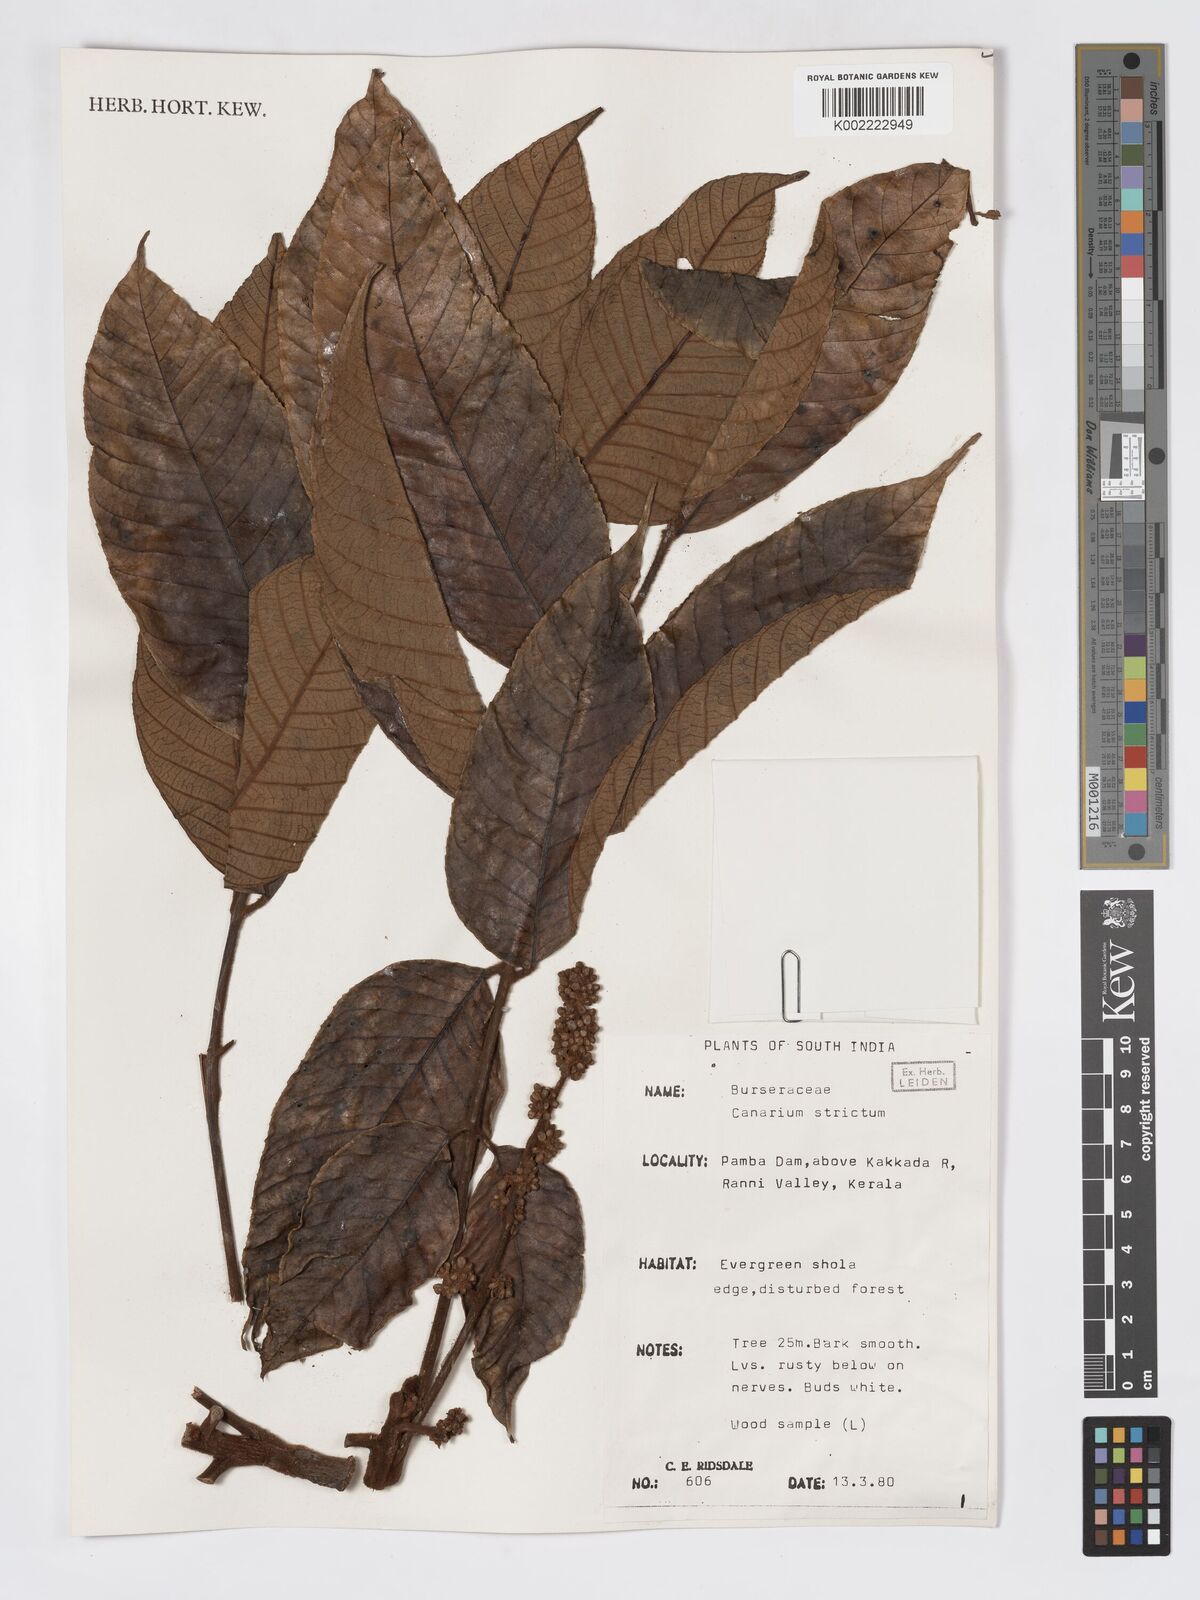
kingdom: Plantae
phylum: Tracheophyta
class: Magnoliopsida
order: Sapindales
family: Burseraceae
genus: Canarium
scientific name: Canarium strictum
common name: Indian white-mahogany
